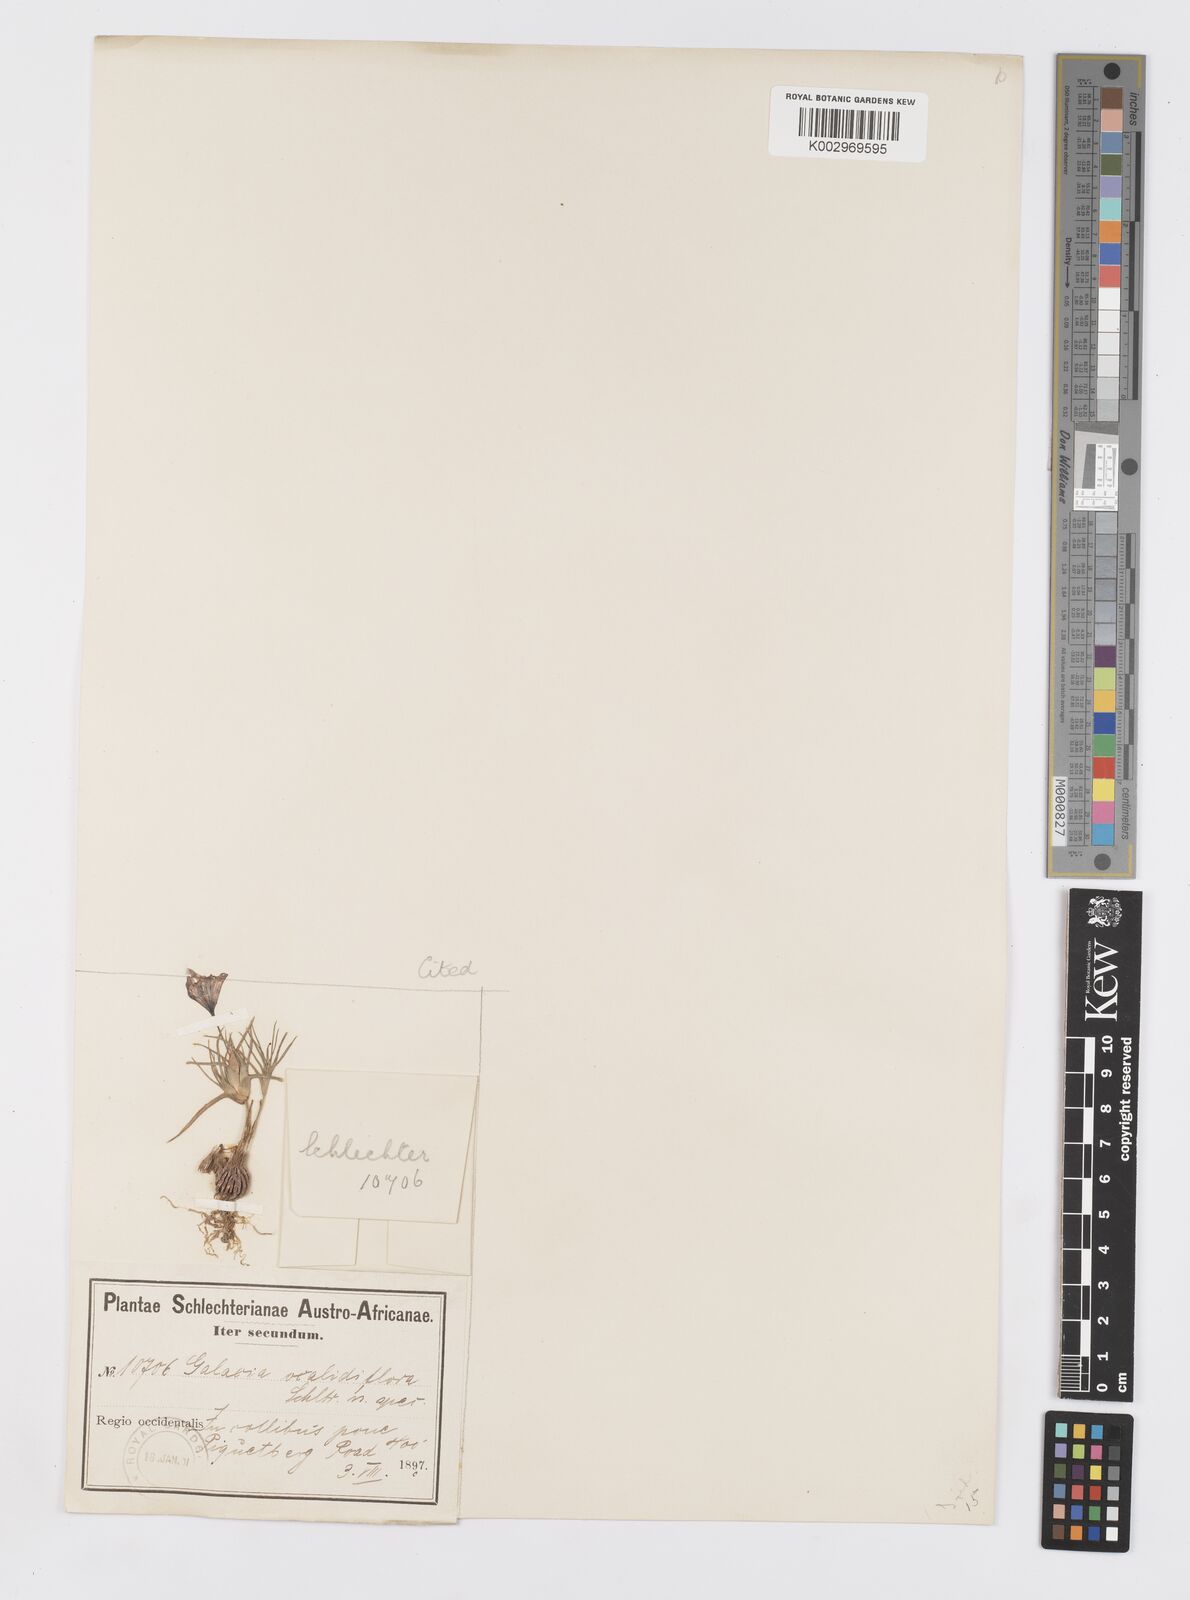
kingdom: Plantae
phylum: Tracheophyta
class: Liliopsida
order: Asparagales
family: Iridaceae
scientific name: Iridaceae
